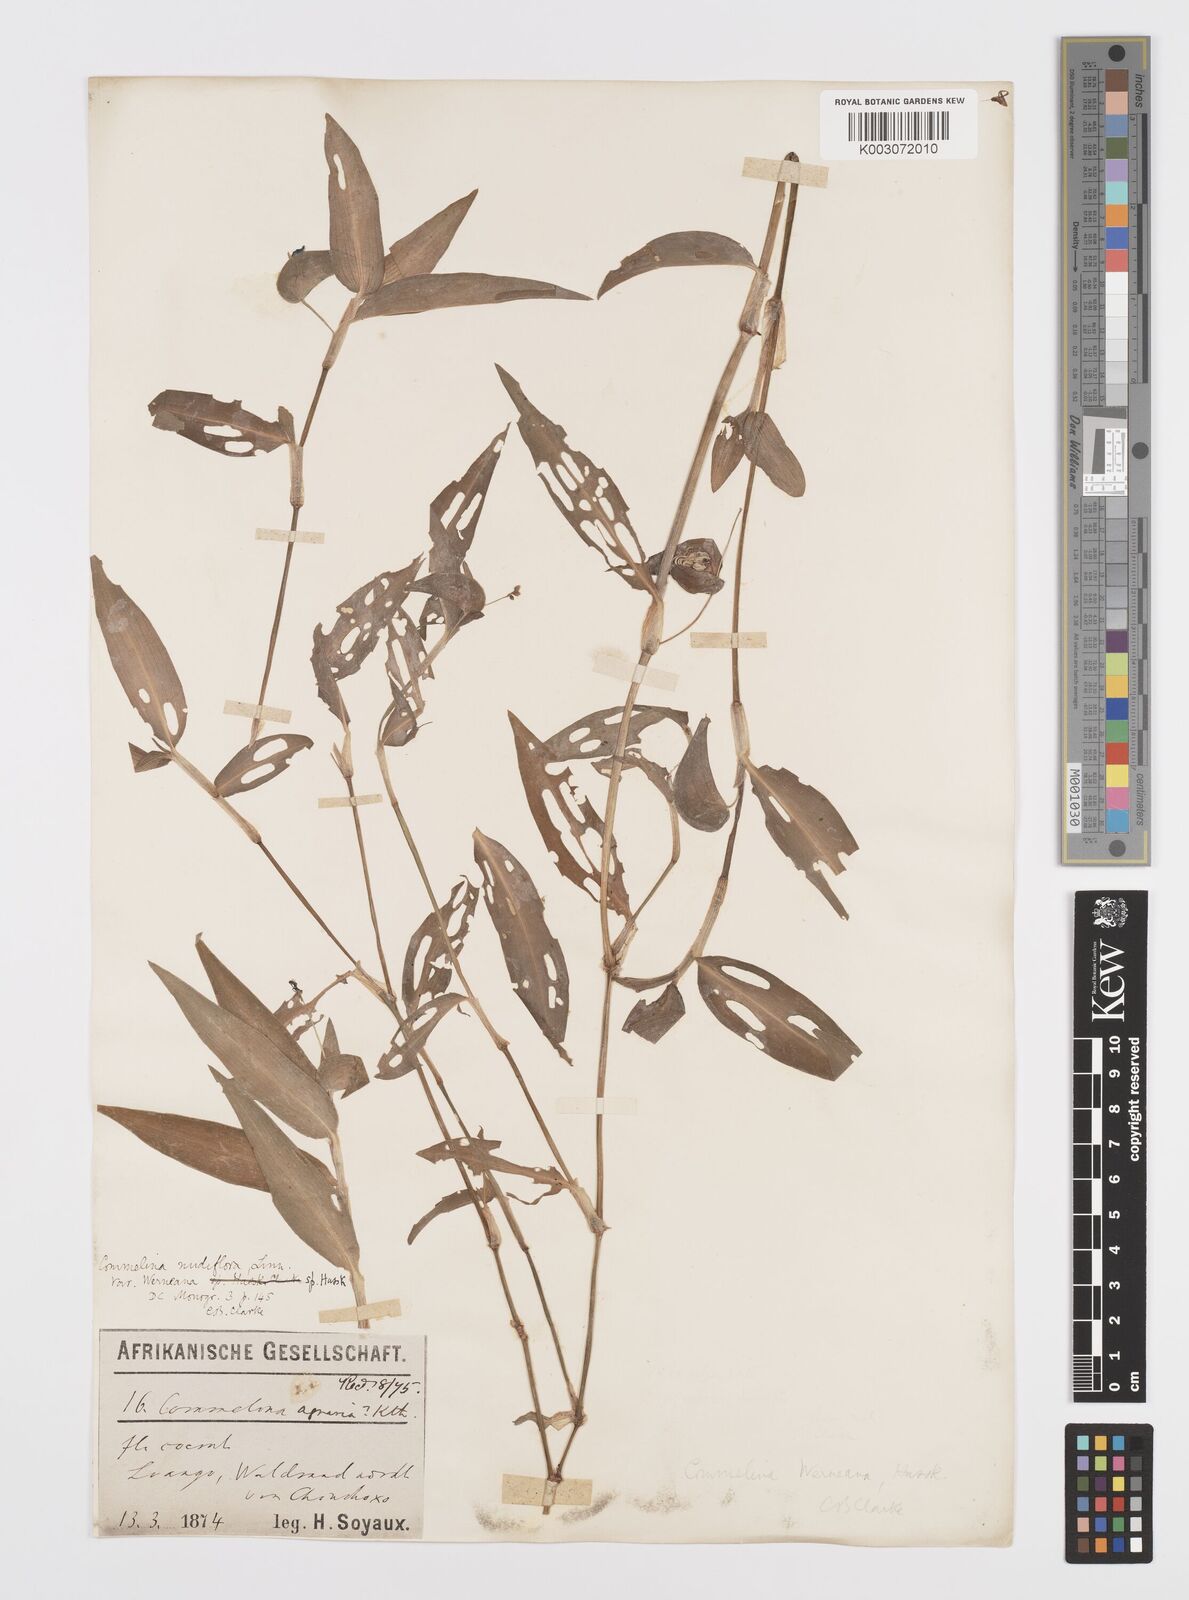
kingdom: Plantae
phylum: Tracheophyta
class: Liliopsida
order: Commelinales
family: Commelinaceae
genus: Commelina
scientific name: Commelina diffusa
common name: Climbing dayflower
